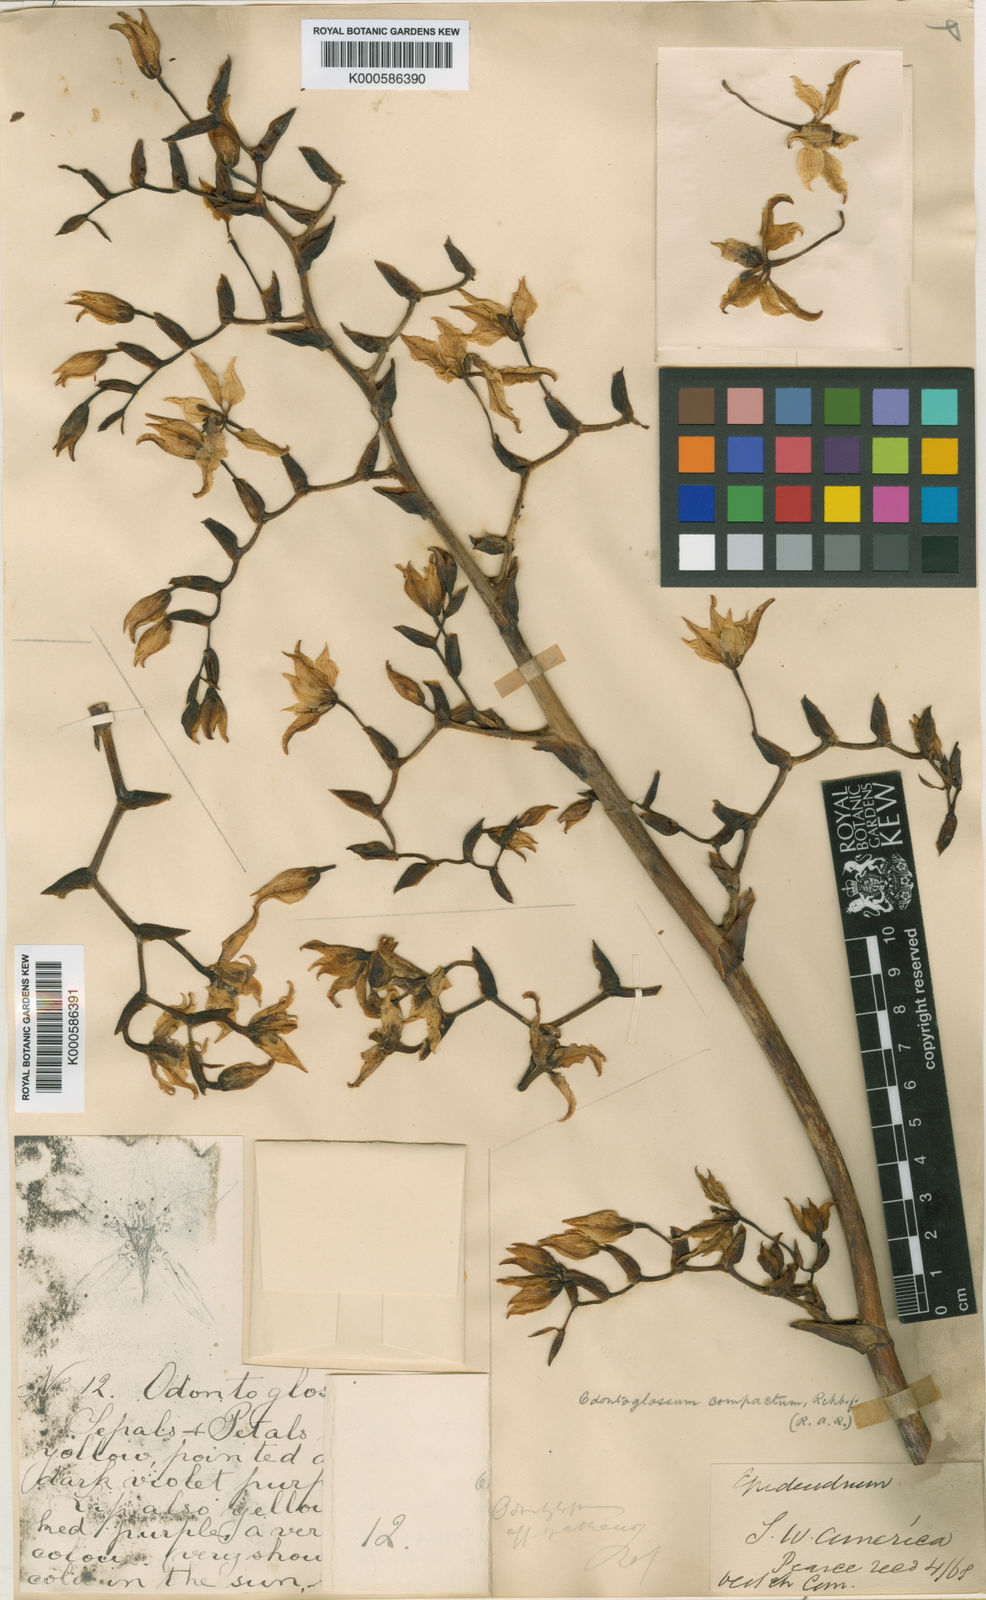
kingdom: Plantae
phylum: Tracheophyta
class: Liliopsida
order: Asparagales
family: Orchidaceae
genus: Cyrtochilum
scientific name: Cyrtochilum compactum
